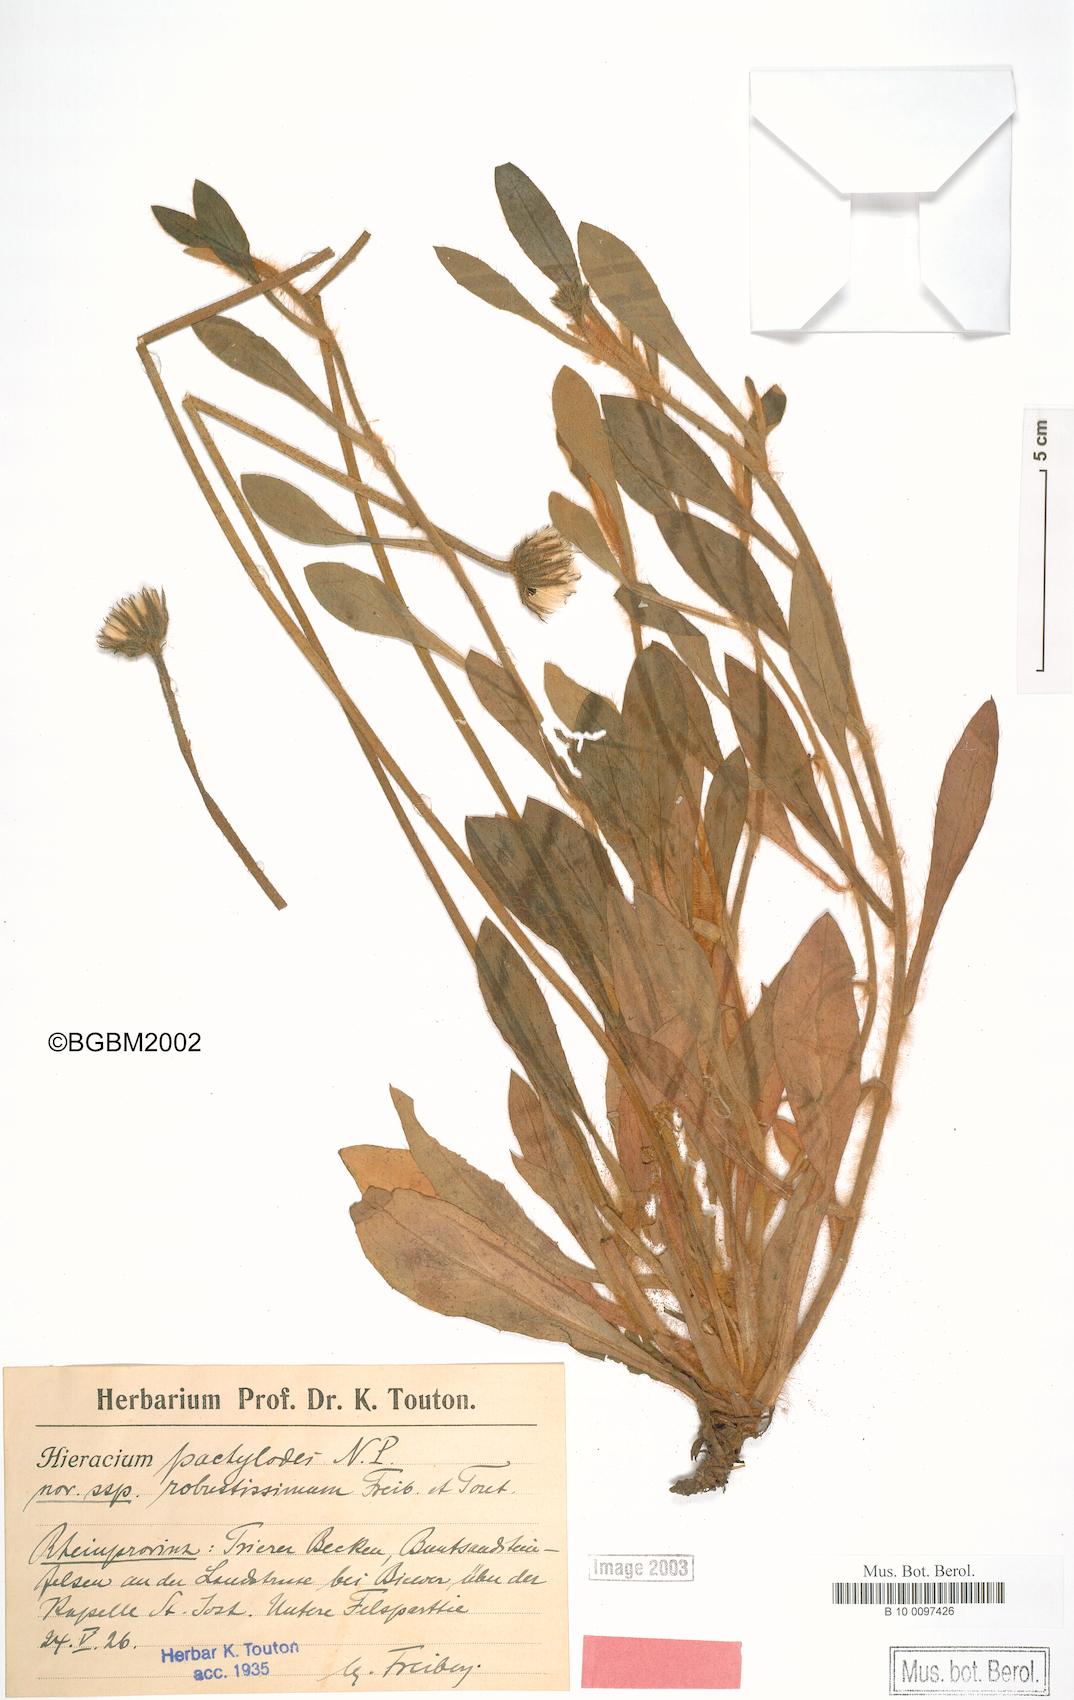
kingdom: Plantae
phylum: Tracheophyta
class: Magnoliopsida
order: Asterales
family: Asteraceae
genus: Pilosella
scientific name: Pilosella longisquama
